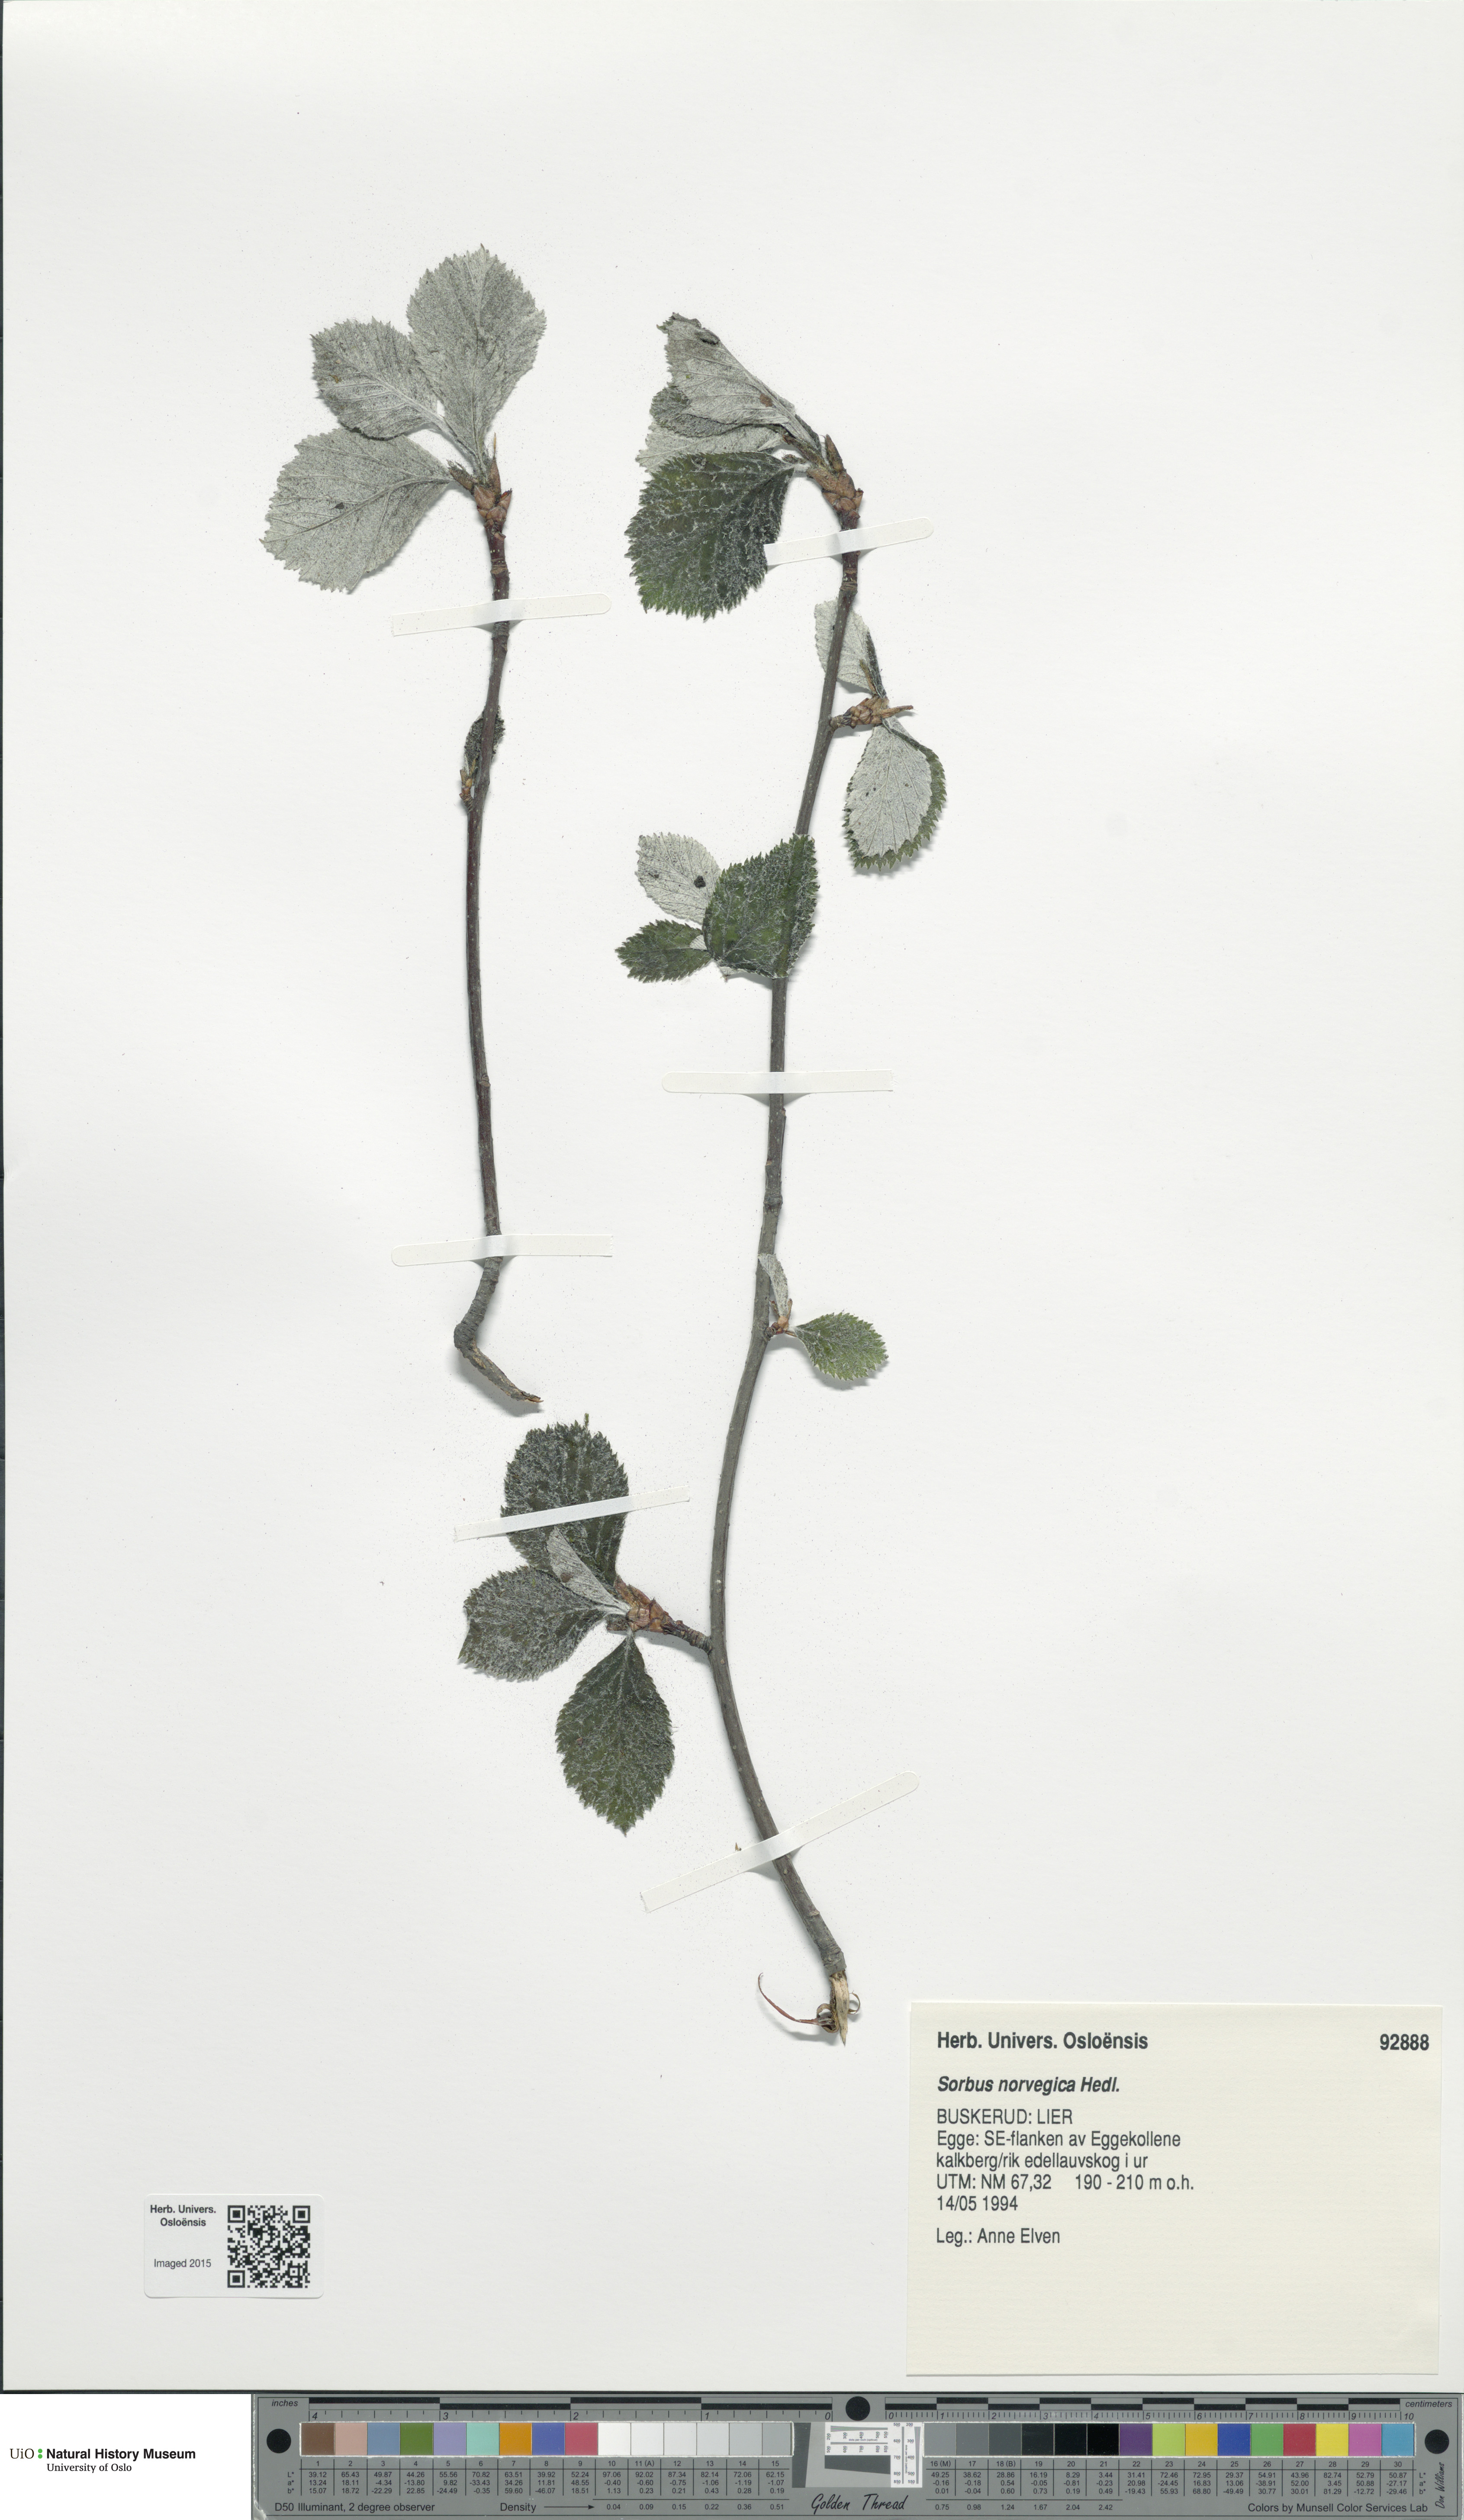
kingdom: Plantae
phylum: Tracheophyta
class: Magnoliopsida
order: Rosales
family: Rosaceae
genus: Aria
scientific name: Aria obtusifolia
